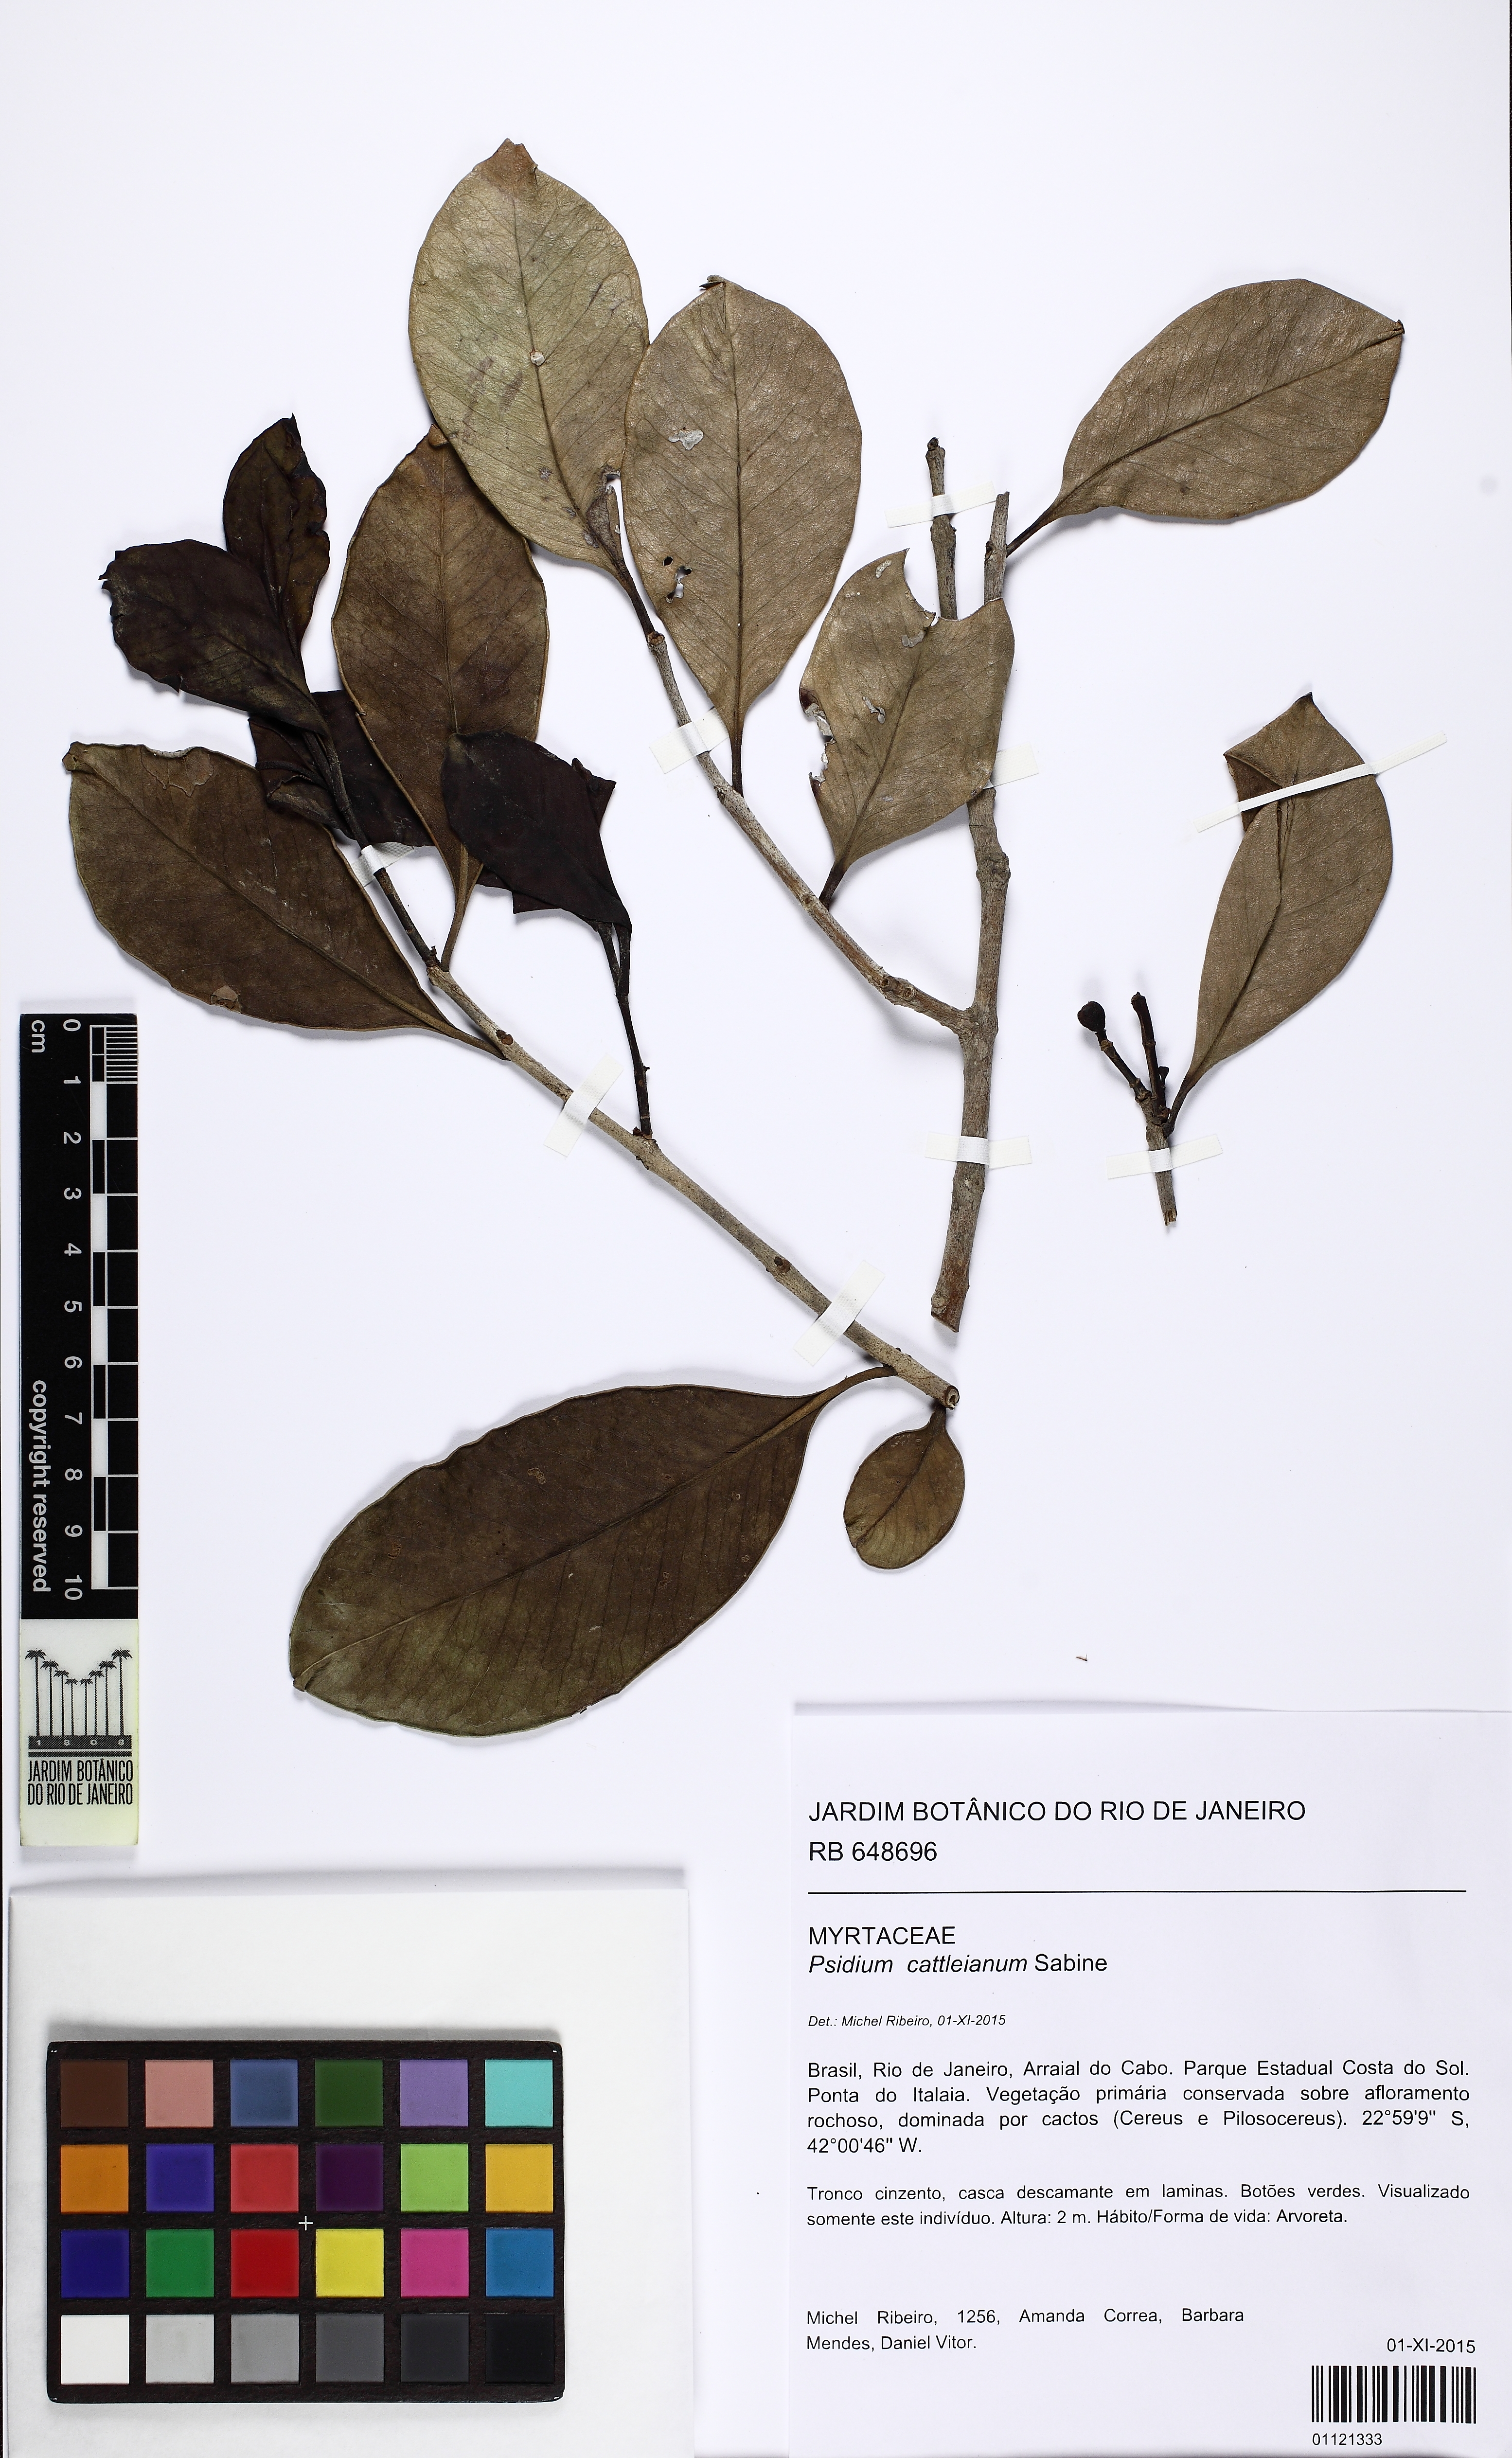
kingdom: Plantae
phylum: Tracheophyta
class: Magnoliopsida
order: Myrtales
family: Myrtaceae
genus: Psidium
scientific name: Psidium cattleianum
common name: Strawberry guava
